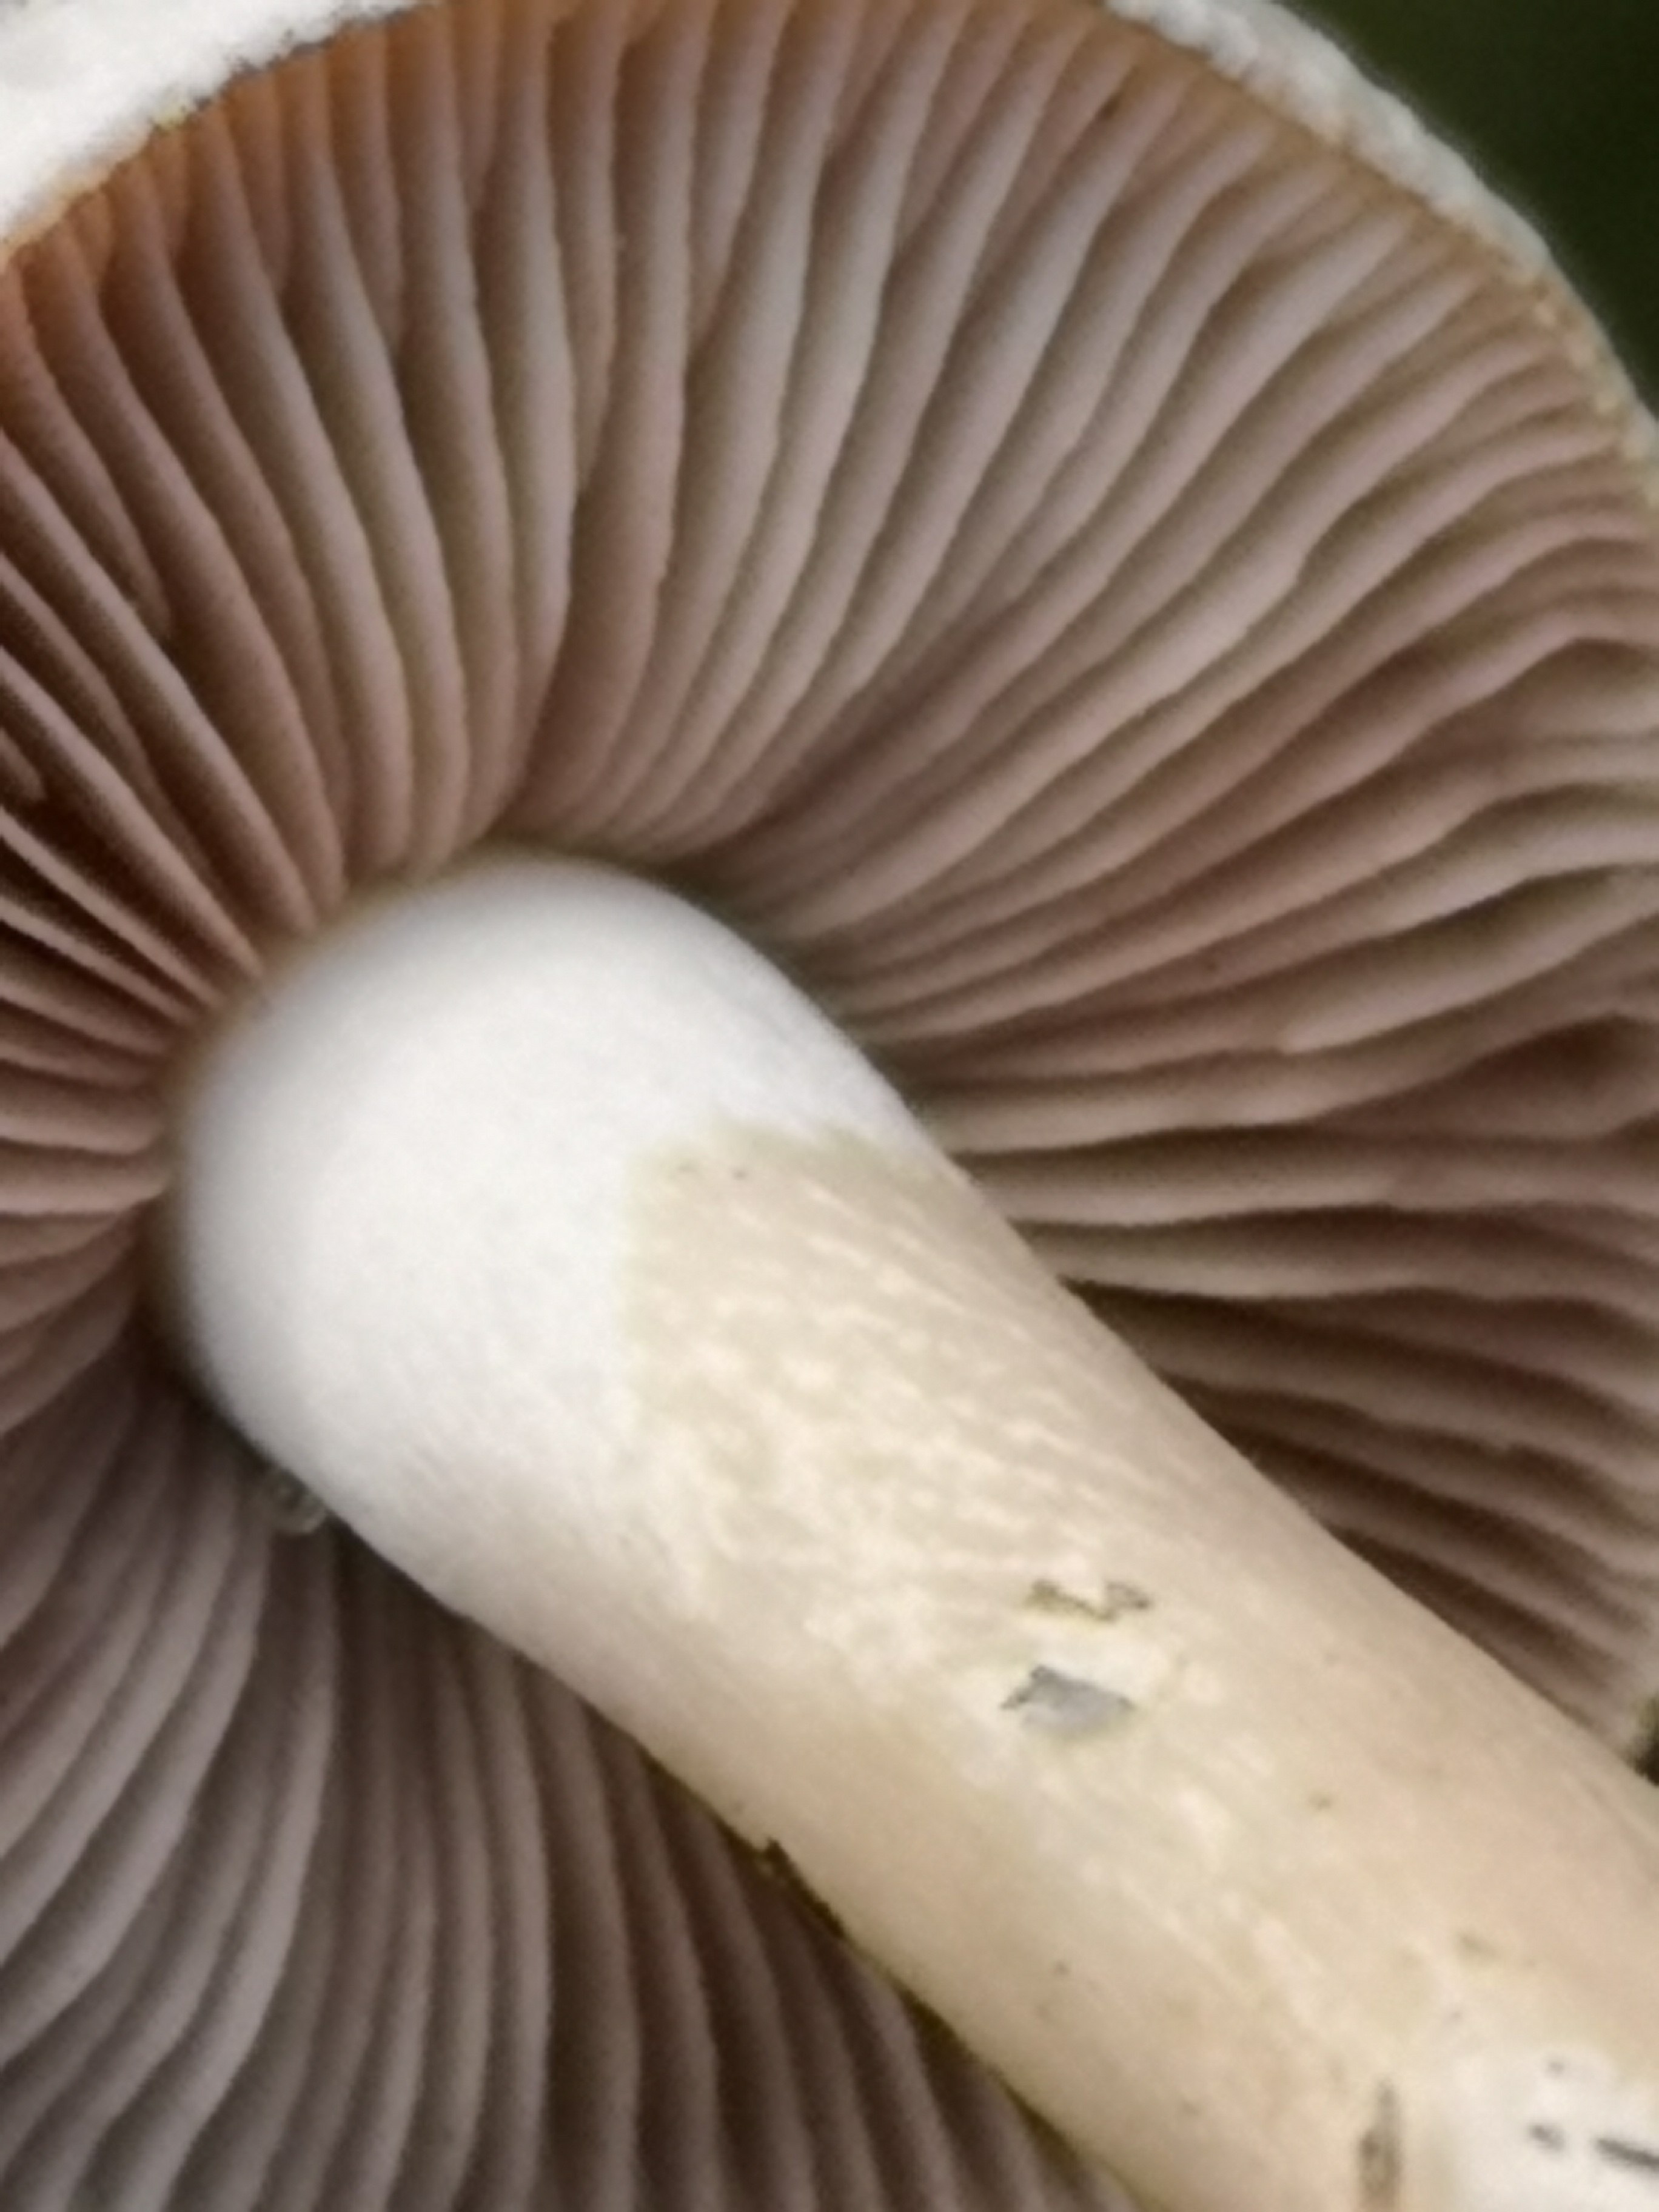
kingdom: Fungi
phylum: Basidiomycota
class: Agaricomycetes
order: Agaricales
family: Hymenogastraceae
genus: Hebeloma
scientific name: Hebeloma cylindrosporum
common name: fyrre-tåreblad
